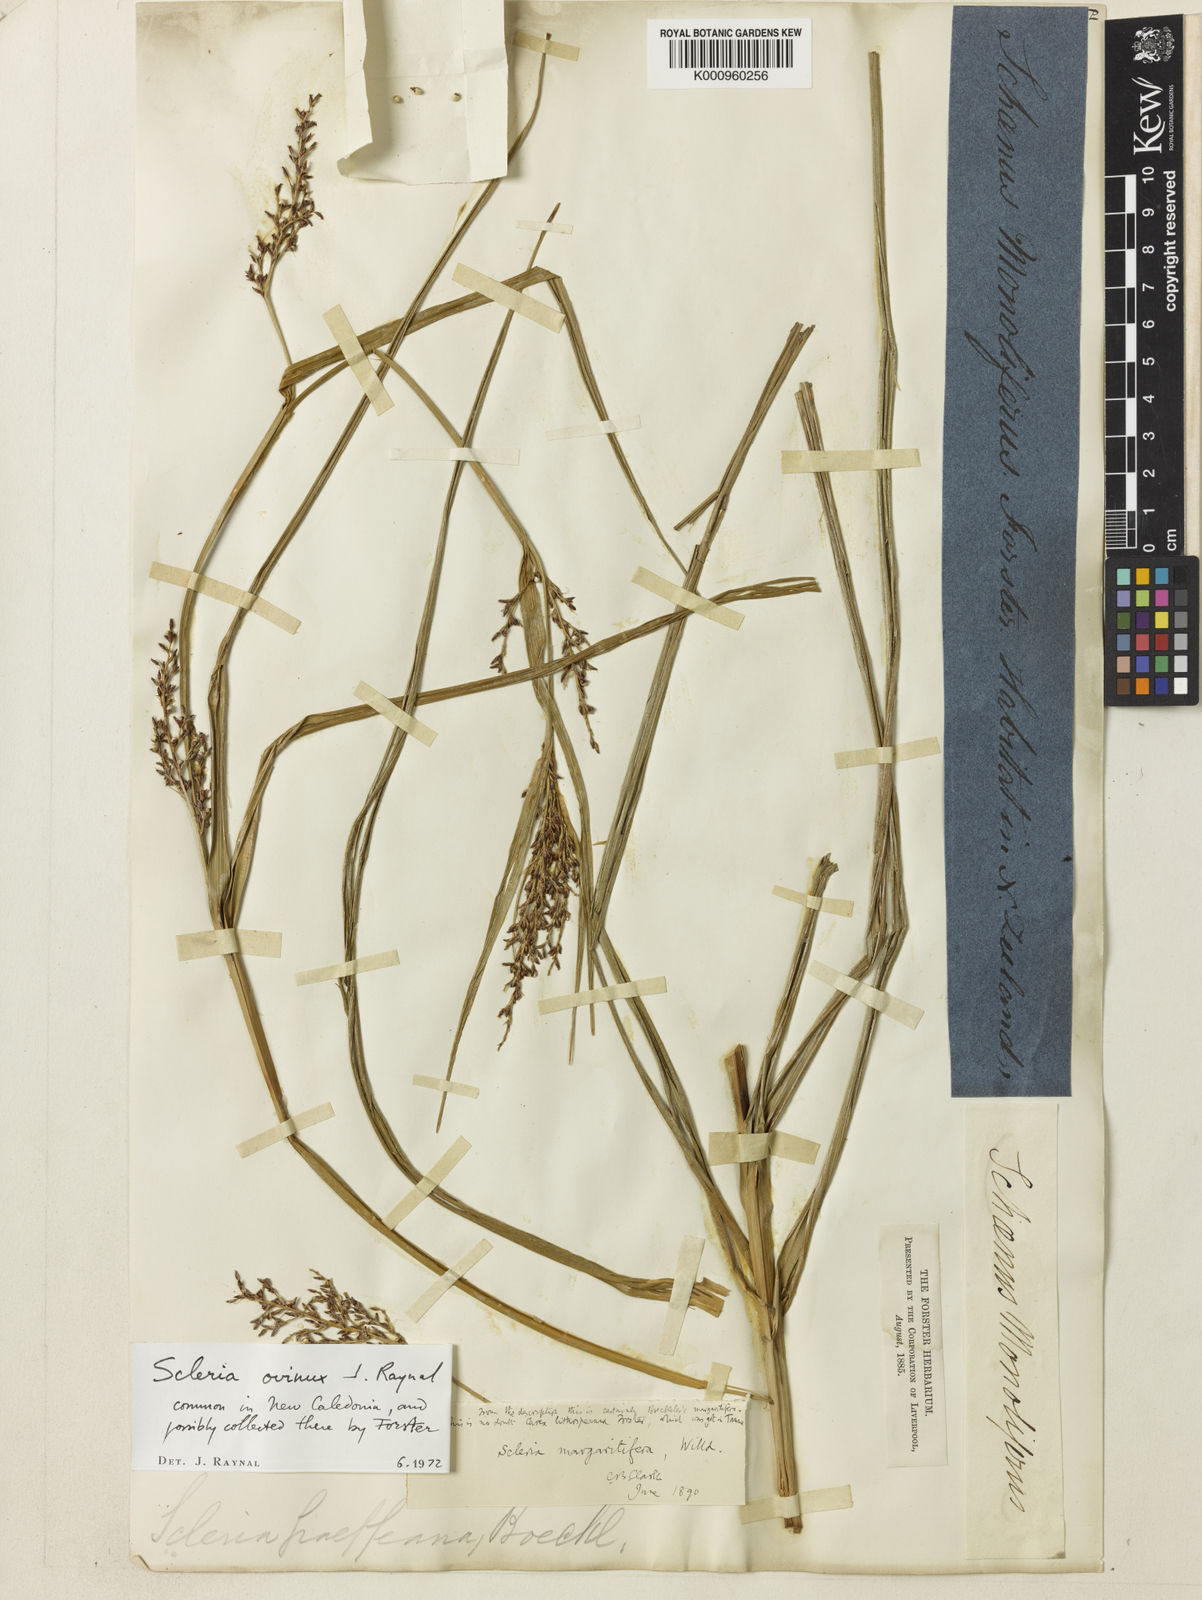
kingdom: Plantae
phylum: Tracheophyta
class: Liliopsida
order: Poales
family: Cyperaceae
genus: Scleria
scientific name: Scleria ovinux
